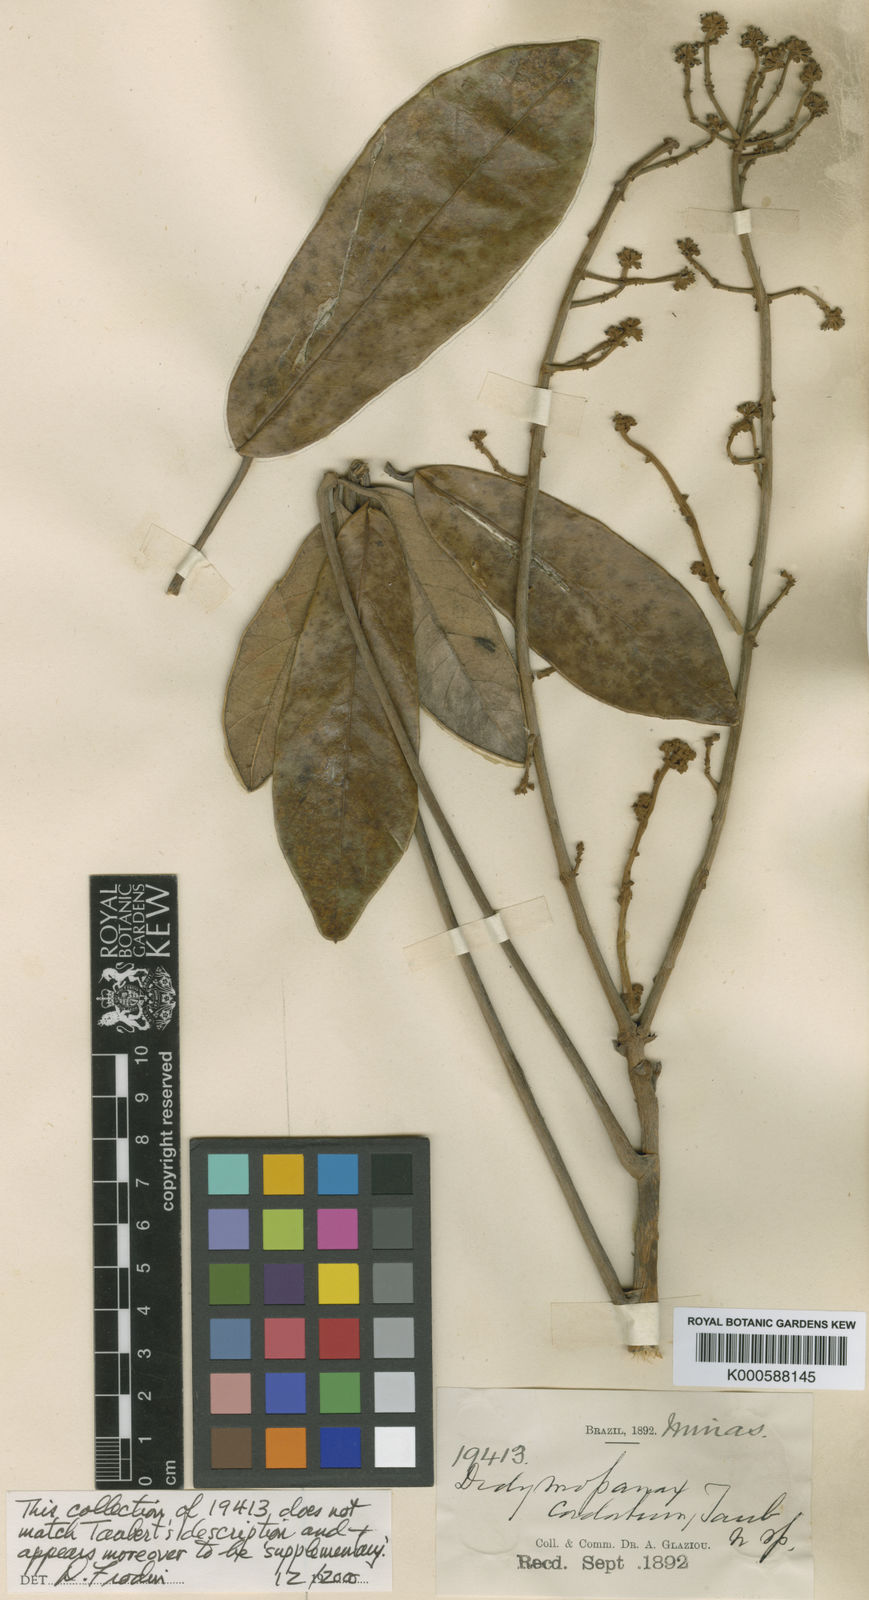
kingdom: Plantae
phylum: Tracheophyta
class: Magnoliopsida
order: Apiales
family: Araliaceae
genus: Didymopanax
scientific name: Didymopanax cordatus
